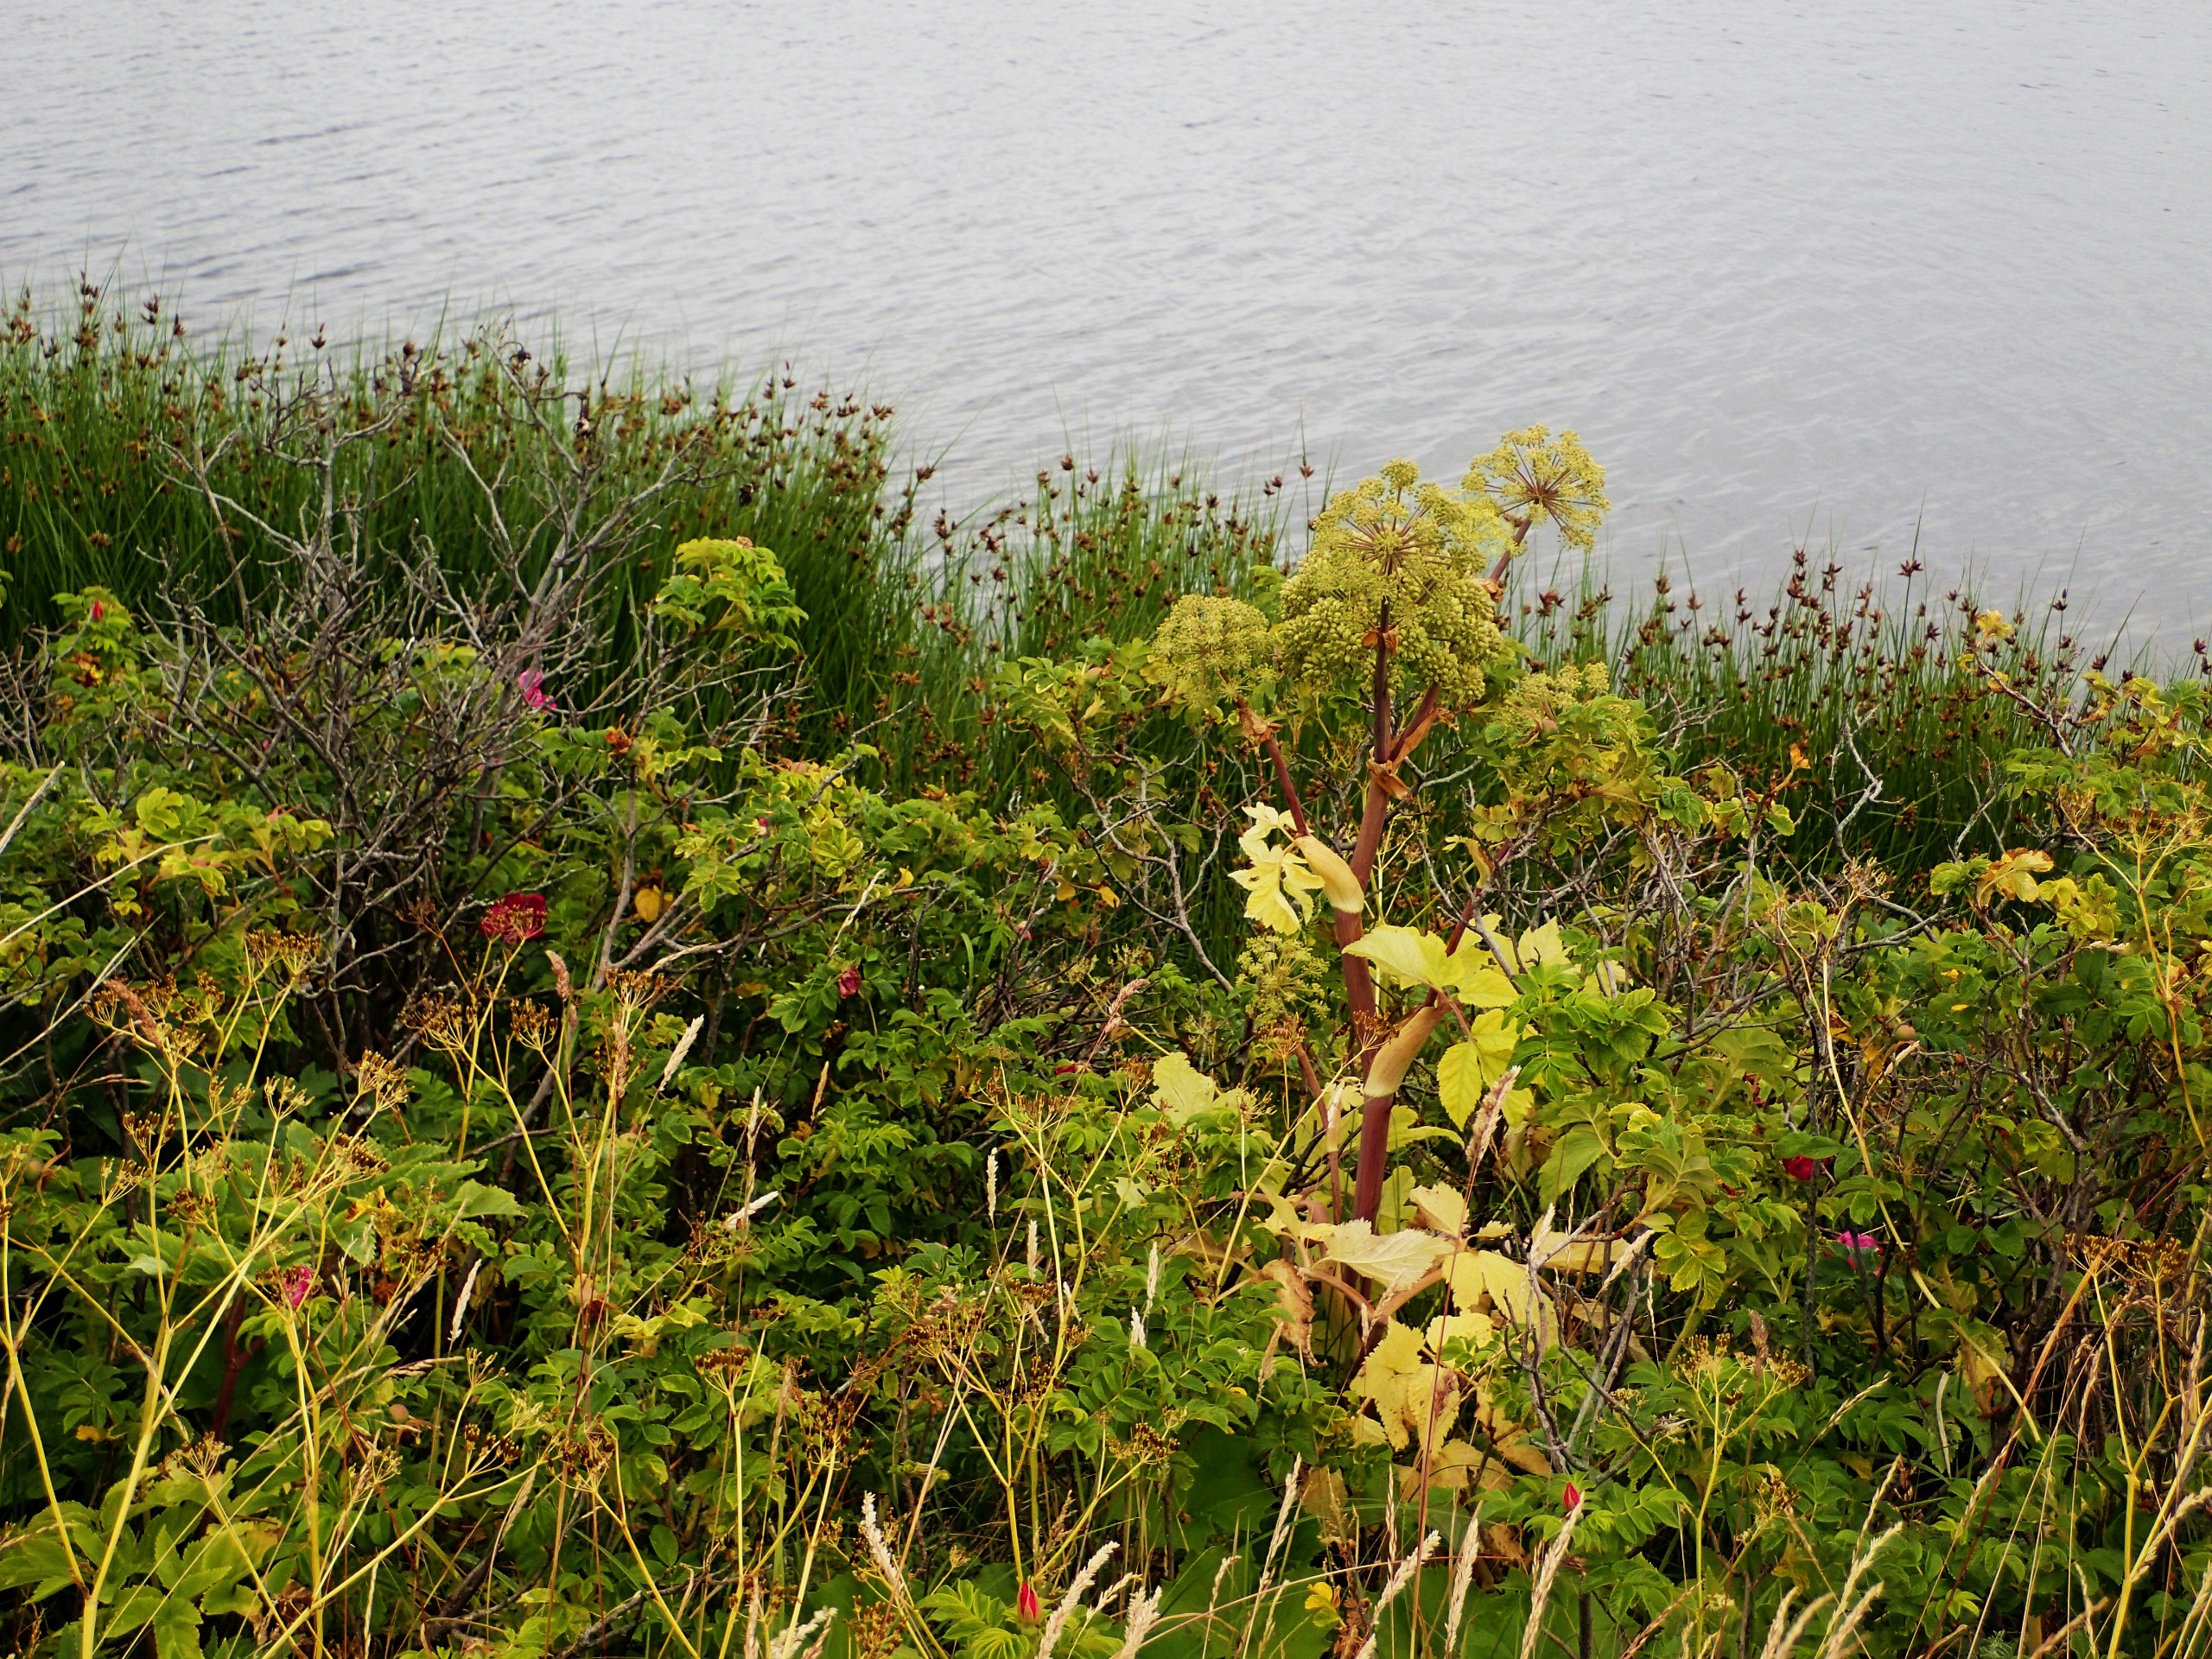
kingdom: Plantae
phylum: Tracheophyta
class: Magnoliopsida
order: Apiales
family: Apiaceae
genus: Angelica
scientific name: Angelica archangelica
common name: Strand-kvan
